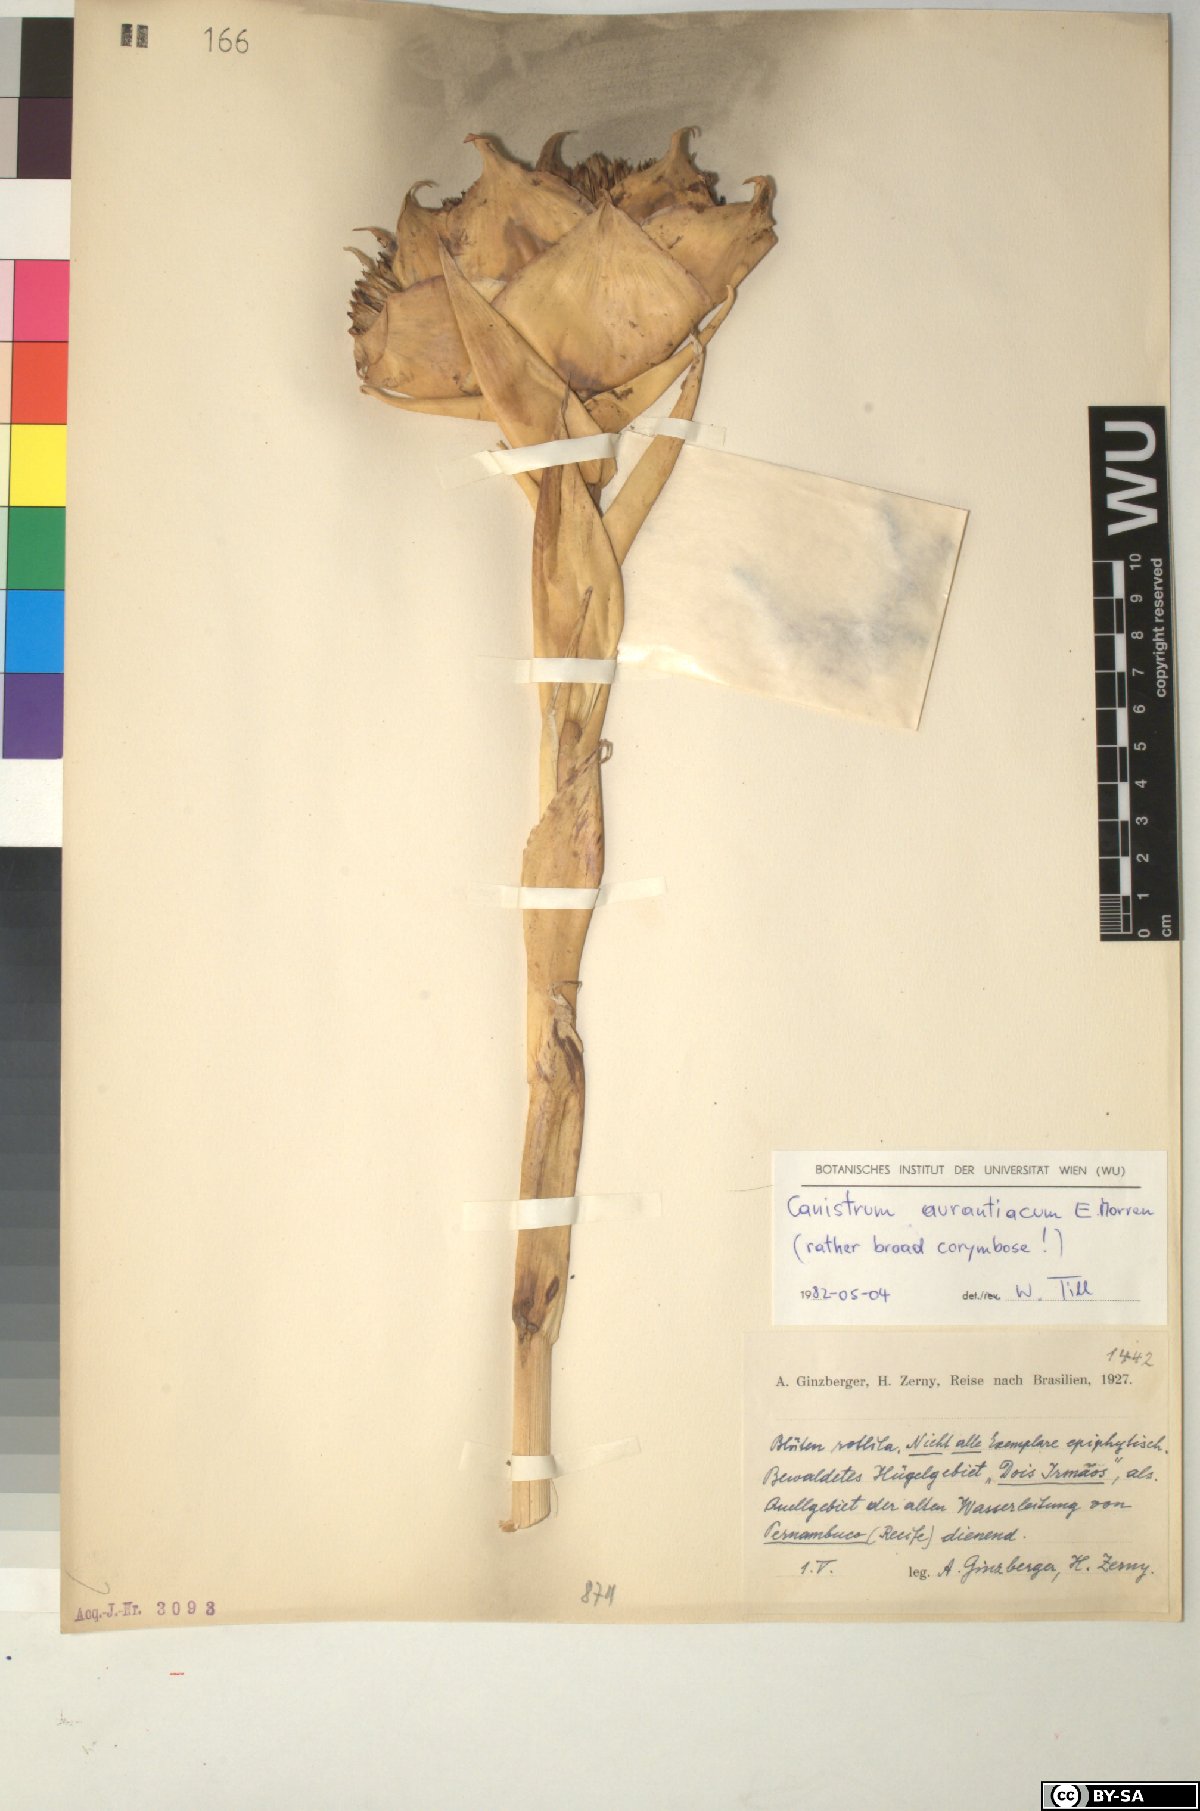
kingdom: Plantae
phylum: Tracheophyta
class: Liliopsida
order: Poales
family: Bromeliaceae
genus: Canistrum
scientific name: Canistrum aurantiacum
